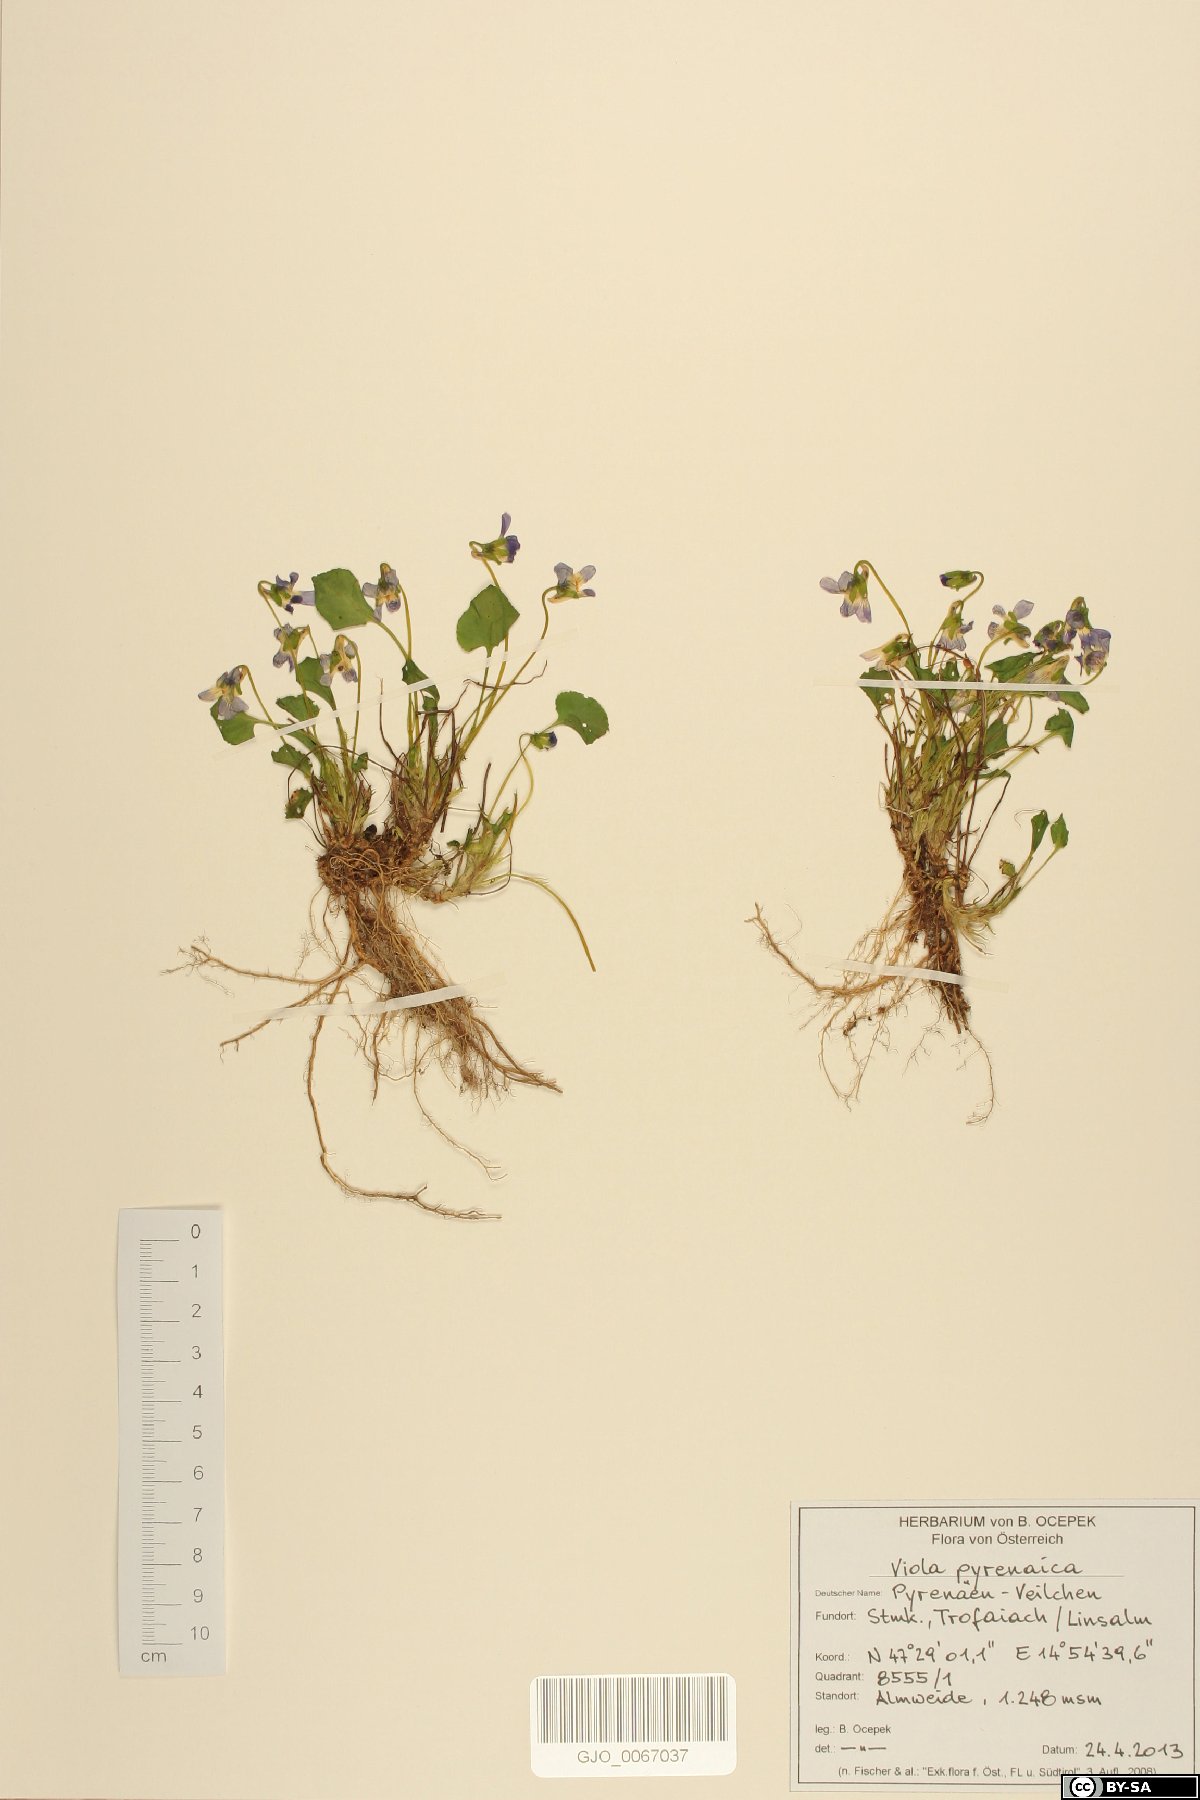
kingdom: Plantae
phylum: Tracheophyta
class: Magnoliopsida
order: Malpighiales
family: Violaceae
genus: Viola
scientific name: Viola pyrenaica
